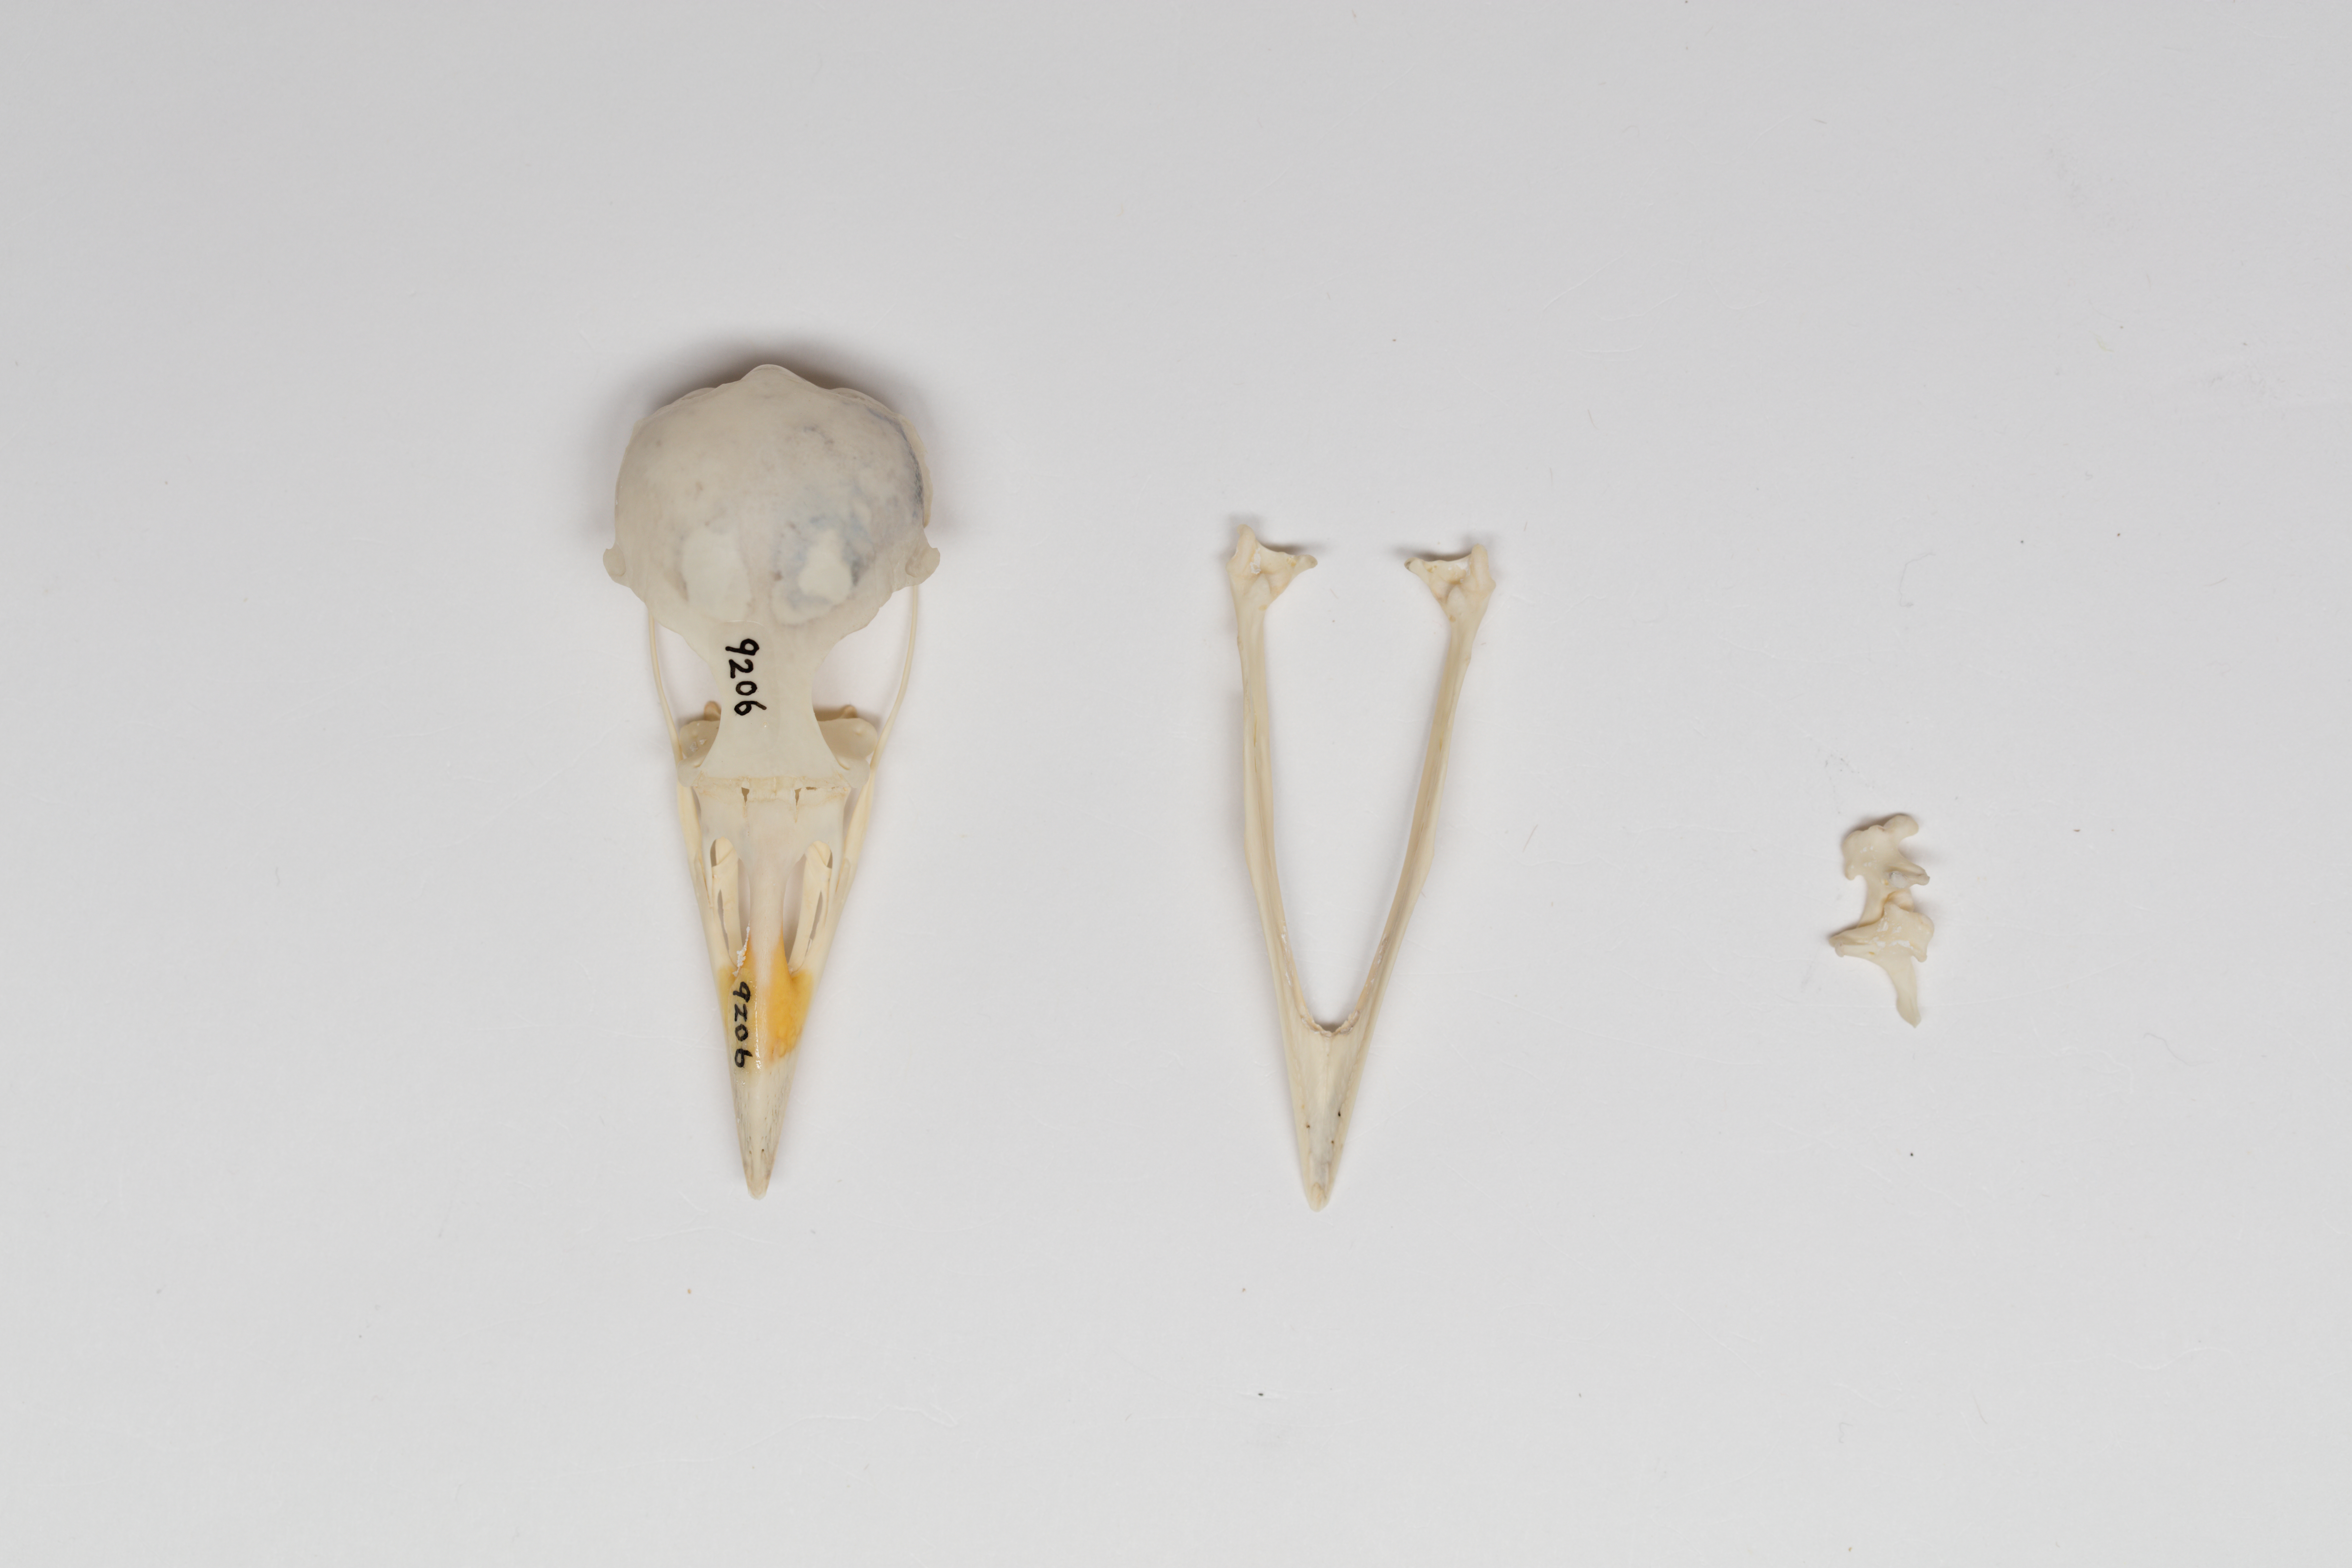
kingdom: Animalia
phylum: Chordata
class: Aves
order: Passeriformes
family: Sturnidae
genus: Aplonis
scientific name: Aplonis atrifusca
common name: Samoan starling
